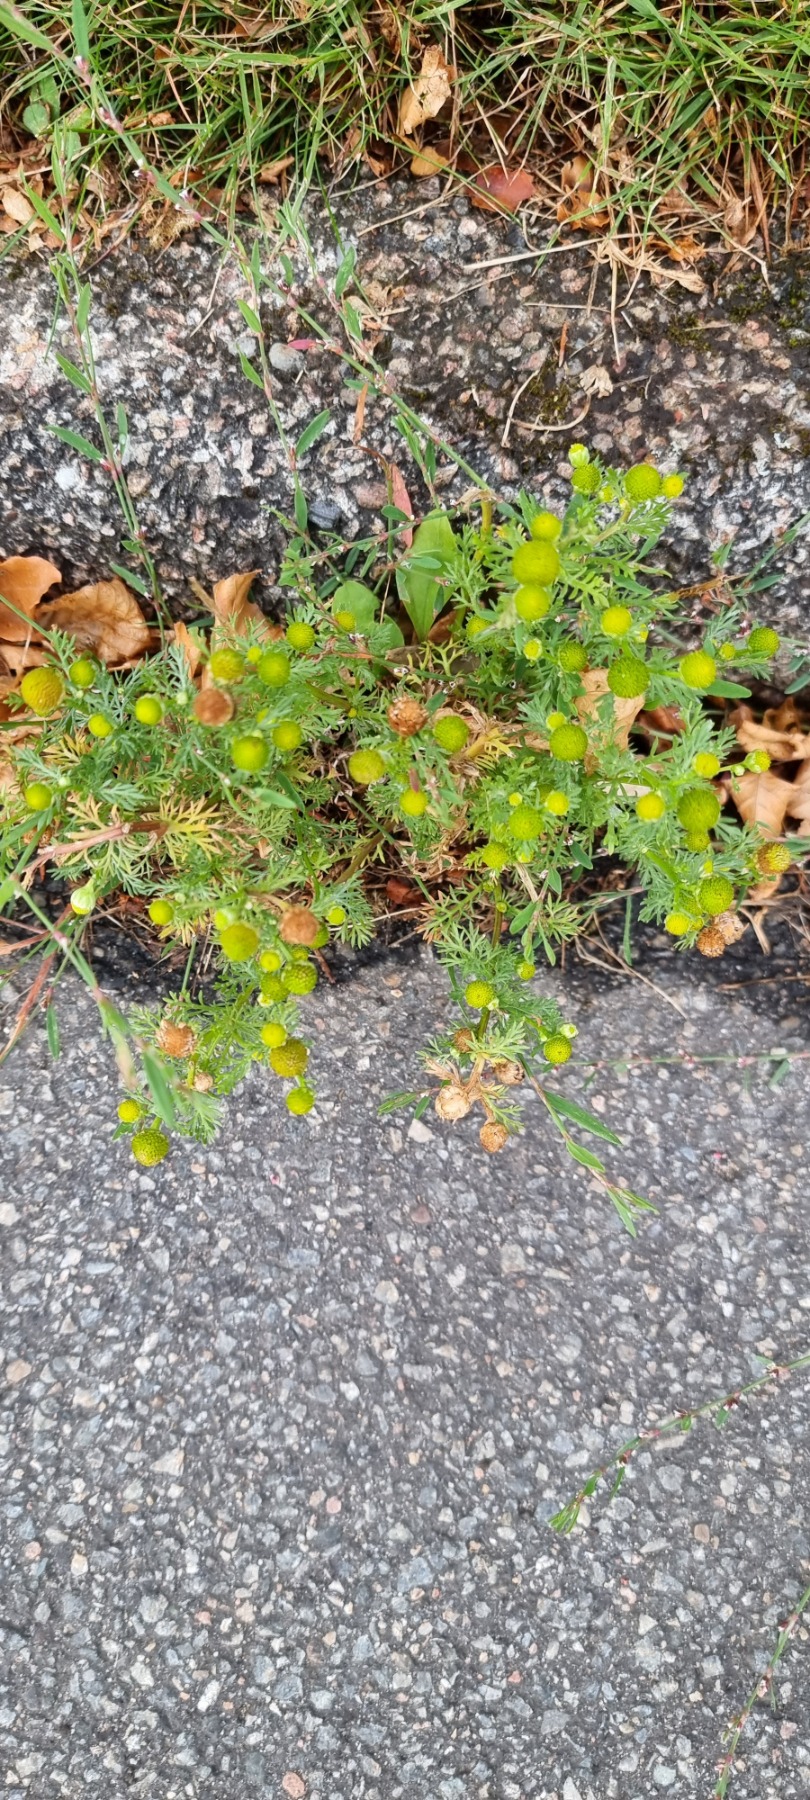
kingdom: Plantae
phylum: Tracheophyta
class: Magnoliopsida
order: Asterales
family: Asteraceae
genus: Matricaria
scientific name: Matricaria discoidea
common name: Skive-kamille
